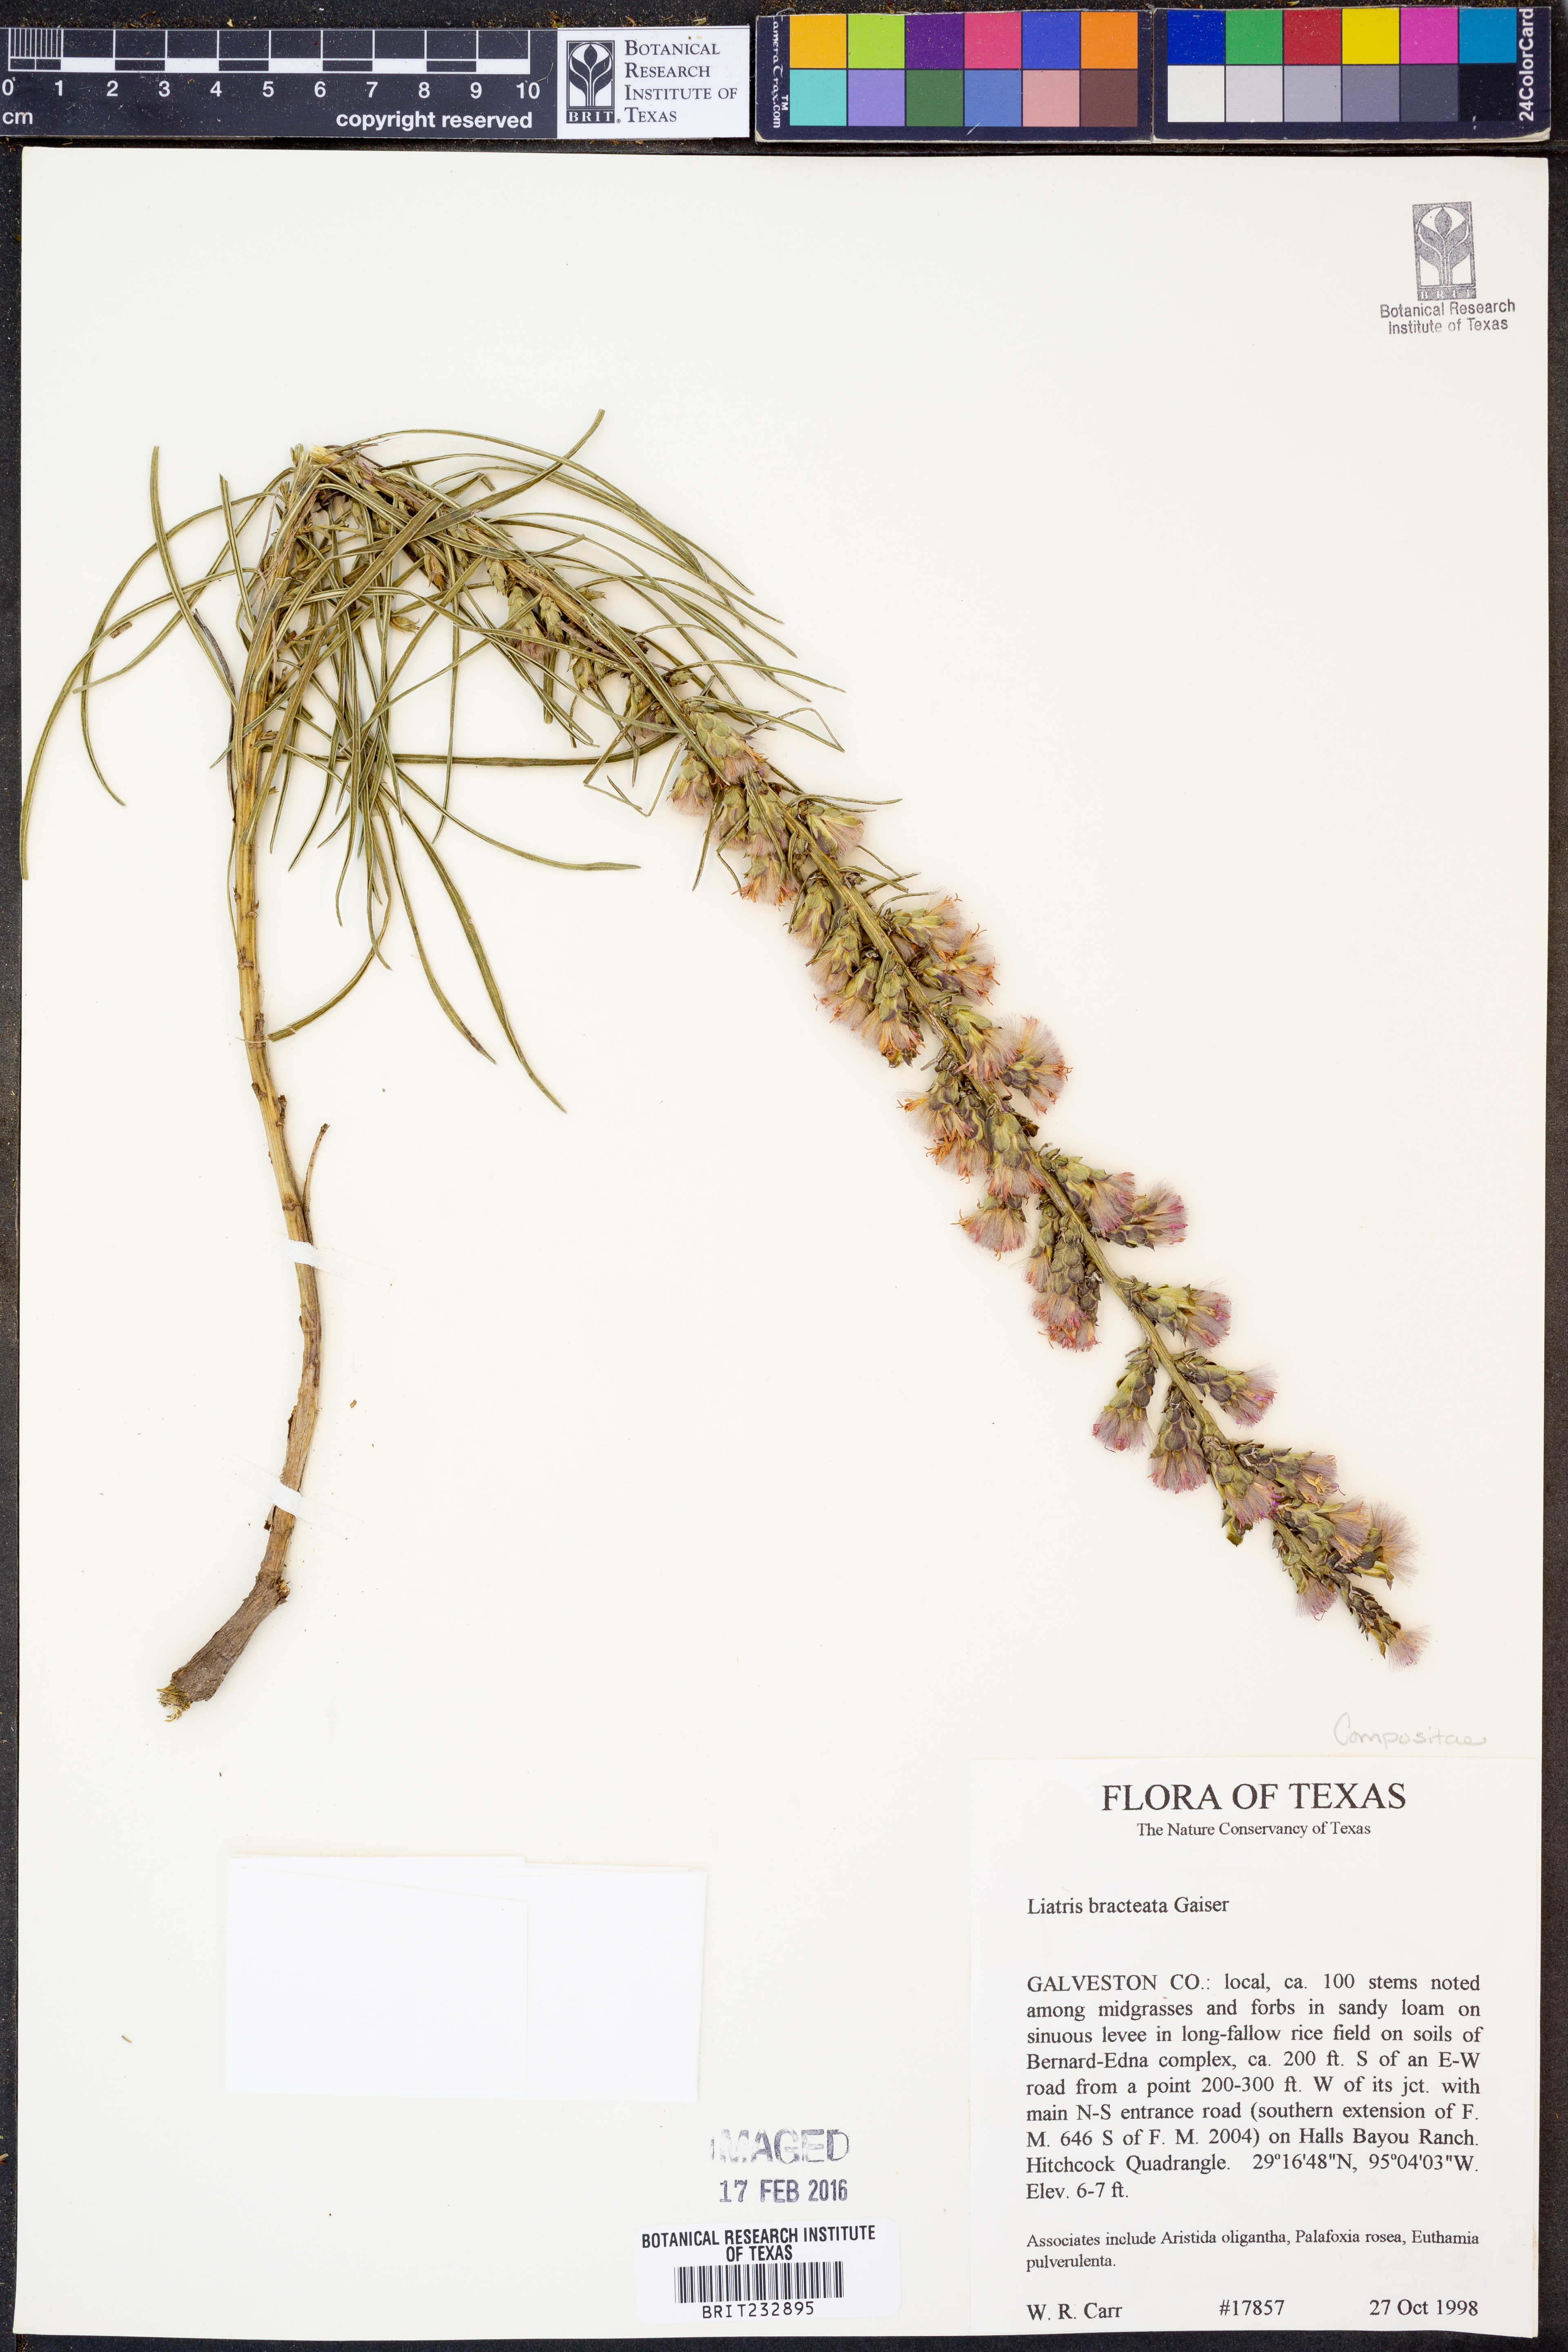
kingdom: Plantae
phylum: Tracheophyta
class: Magnoliopsida
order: Asterales
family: Asteraceae
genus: Liatris
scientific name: Liatris bracteata
